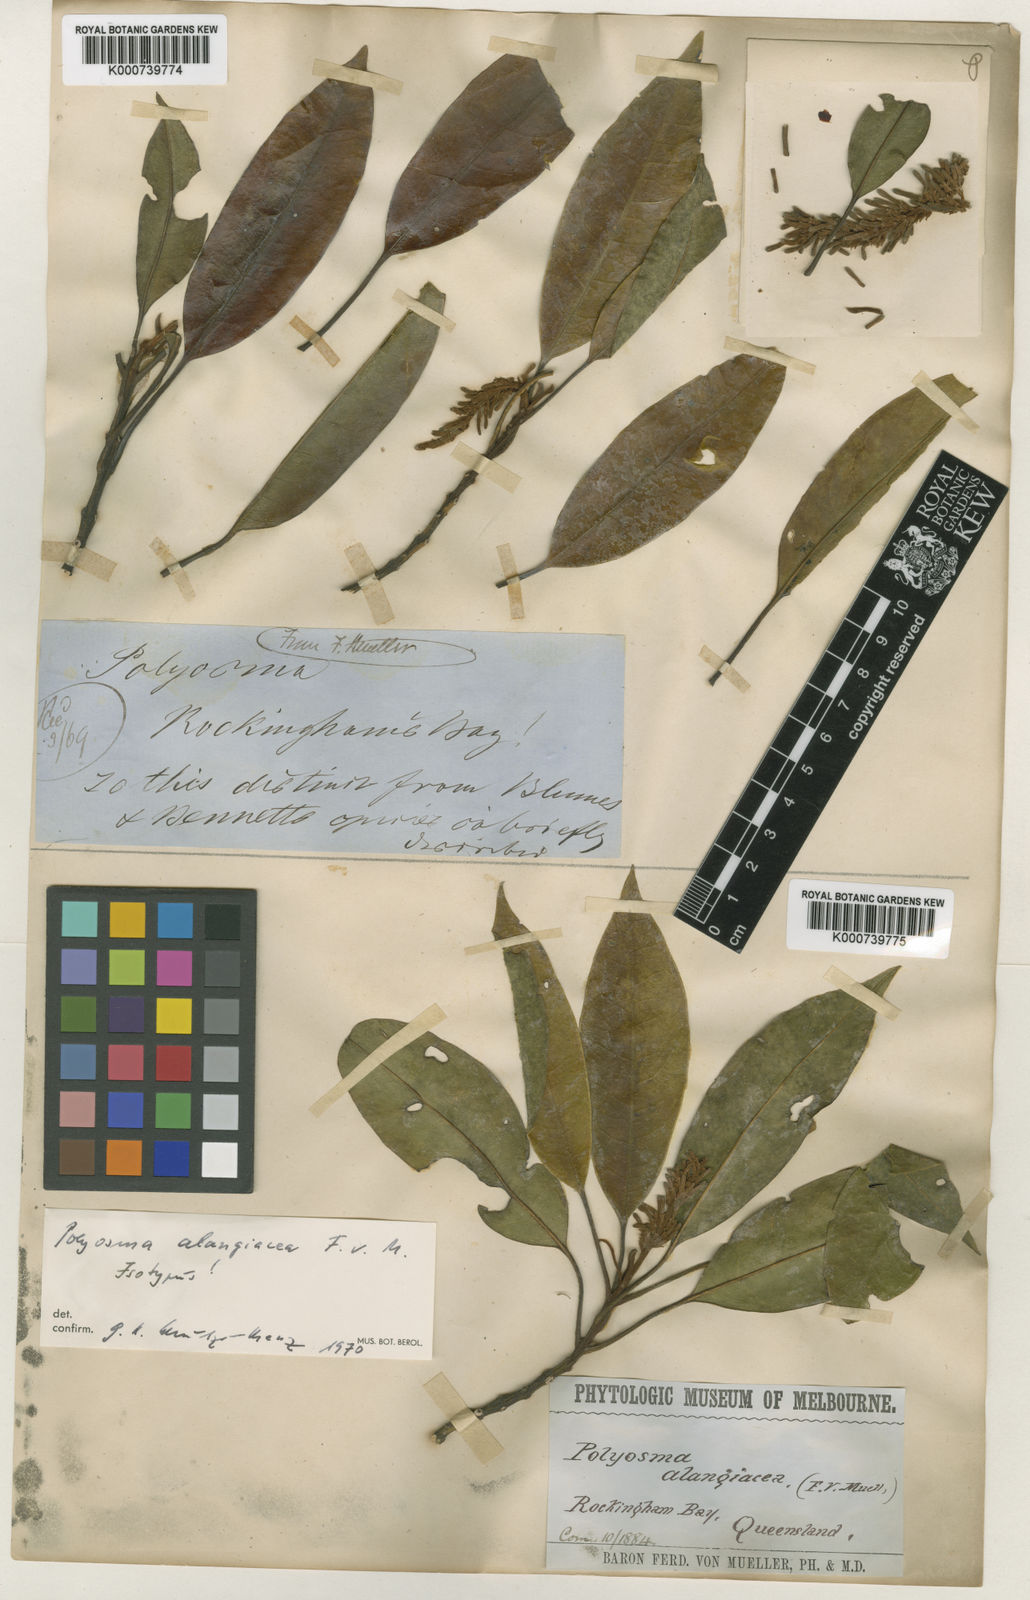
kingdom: Plantae
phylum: Tracheophyta
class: Magnoliopsida
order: Escalloniales
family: Escalloniaceae
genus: Polyosma
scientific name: Polyosma alangiacea
